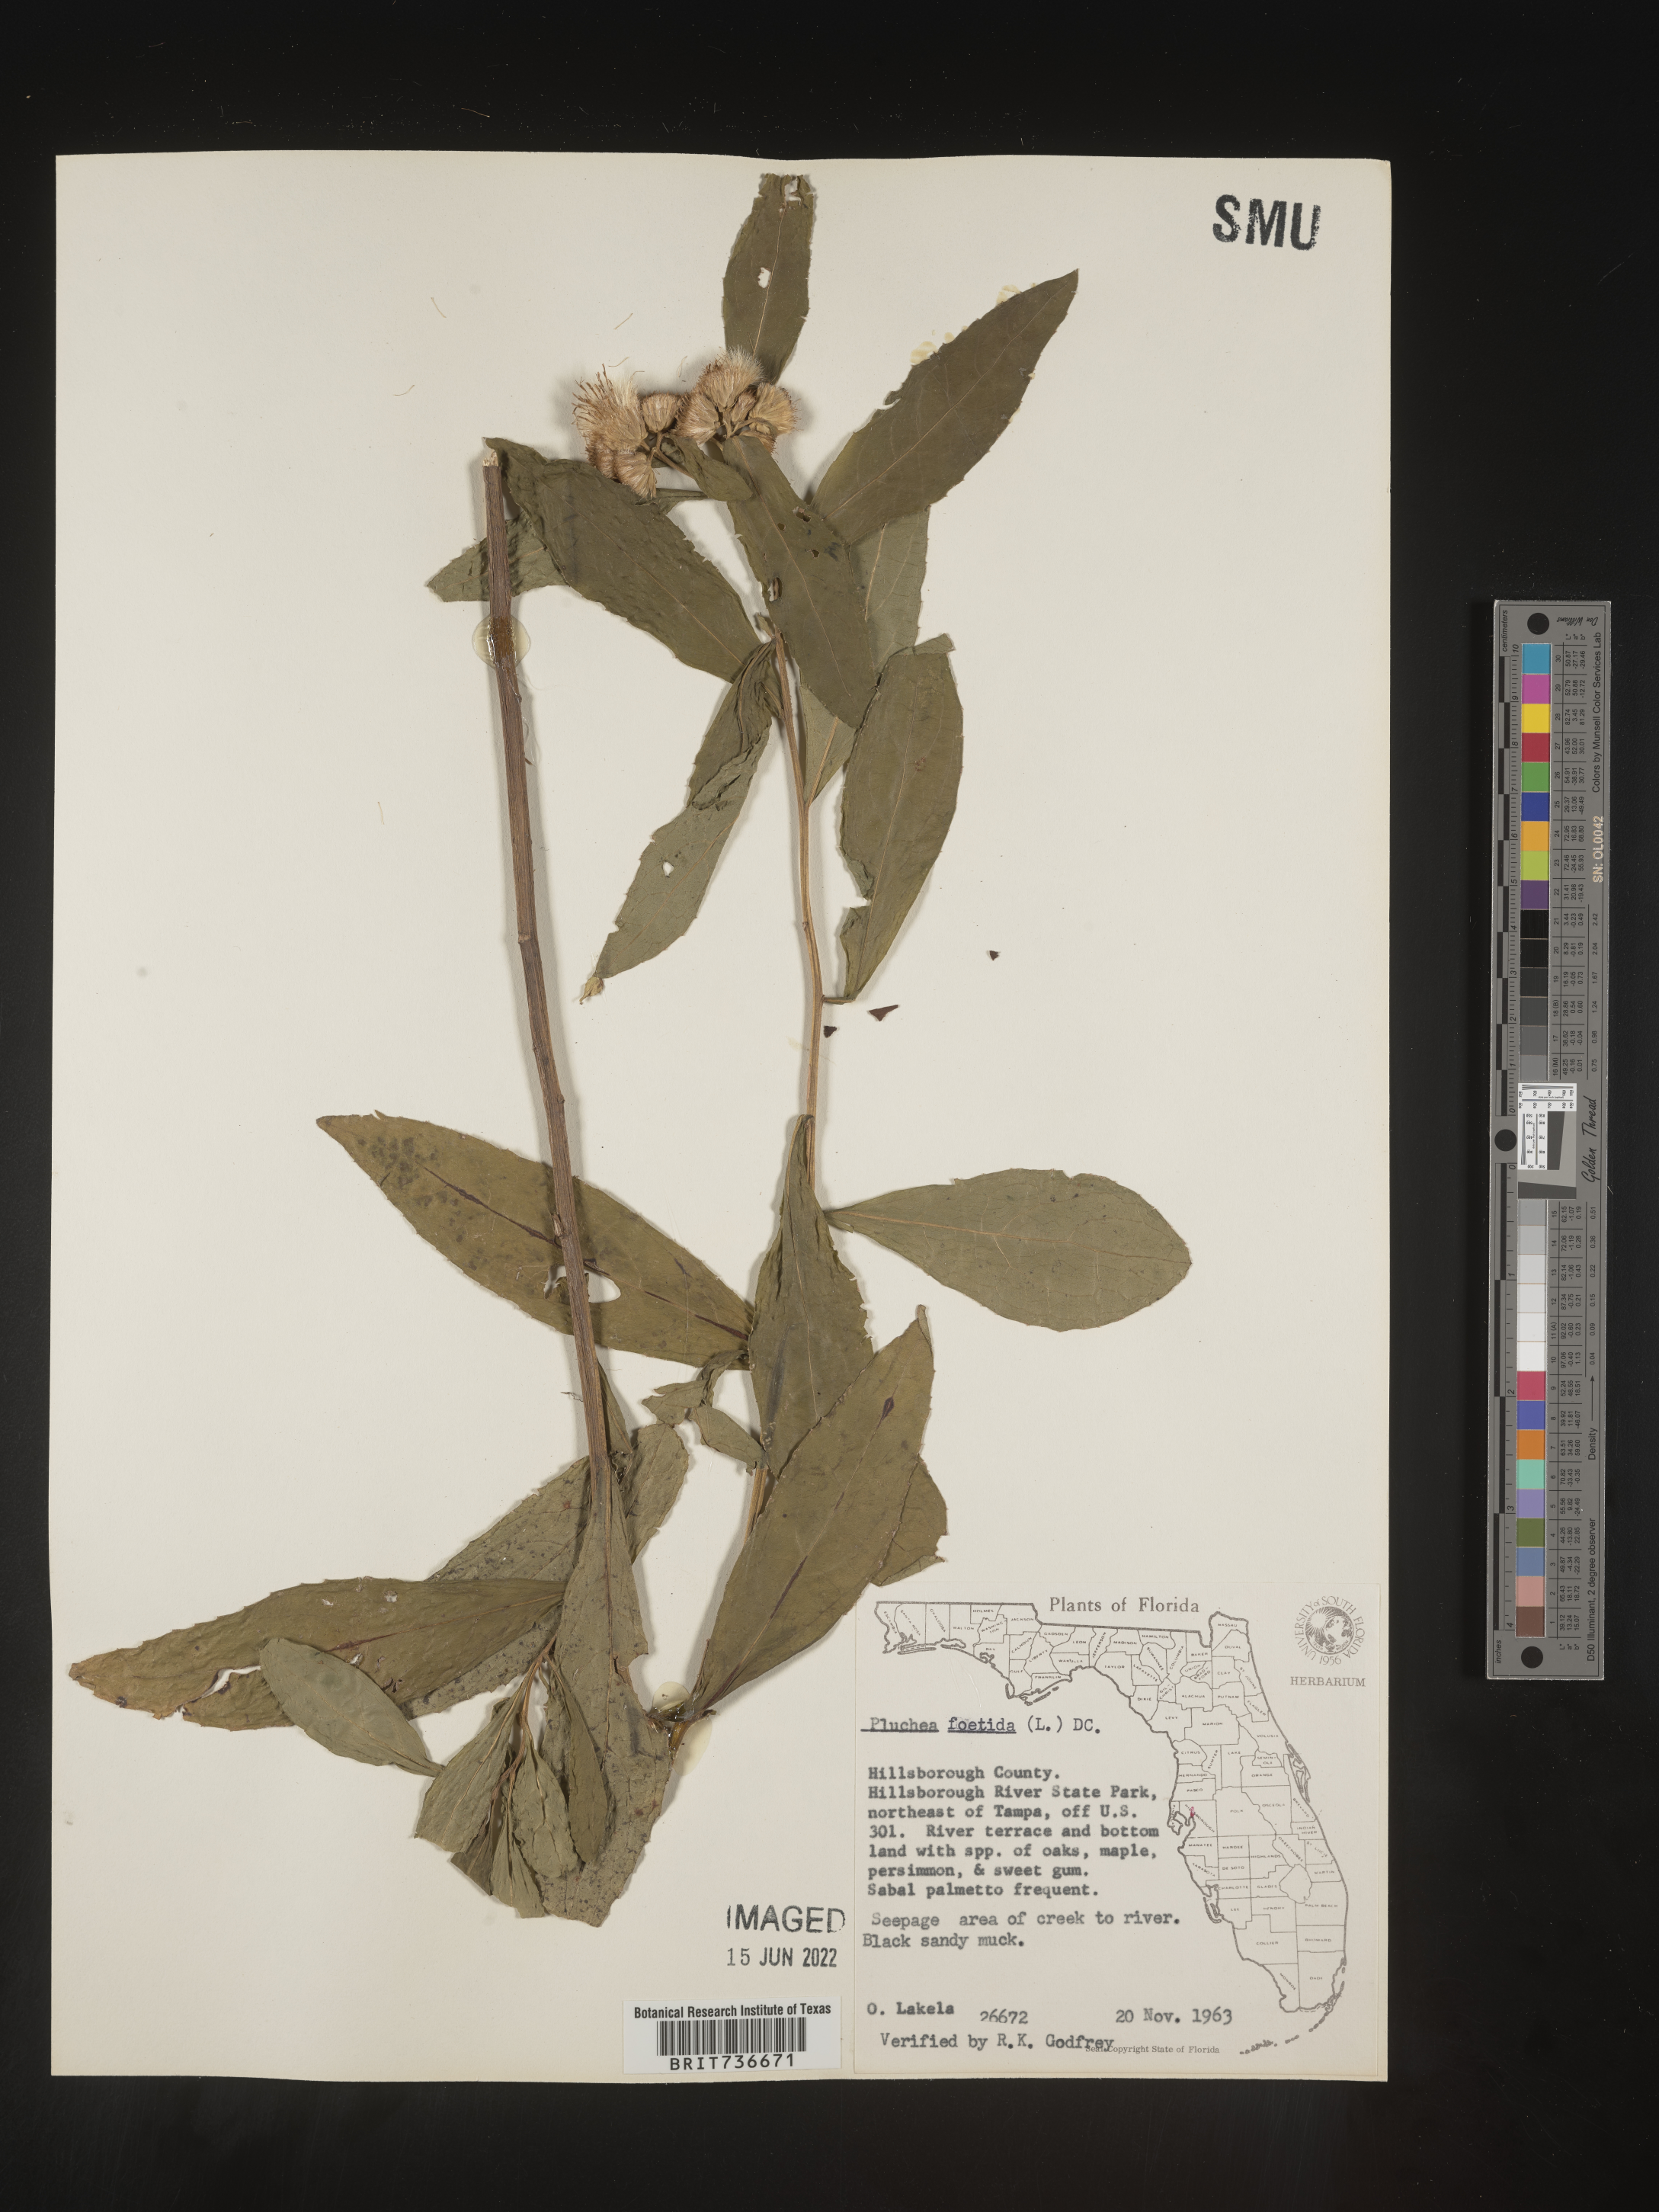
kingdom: Plantae
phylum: Tracheophyta
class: Magnoliopsida
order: Asterales
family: Asteraceae
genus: Pluchea
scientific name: Pluchea foetida
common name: Stinking camphorweed
